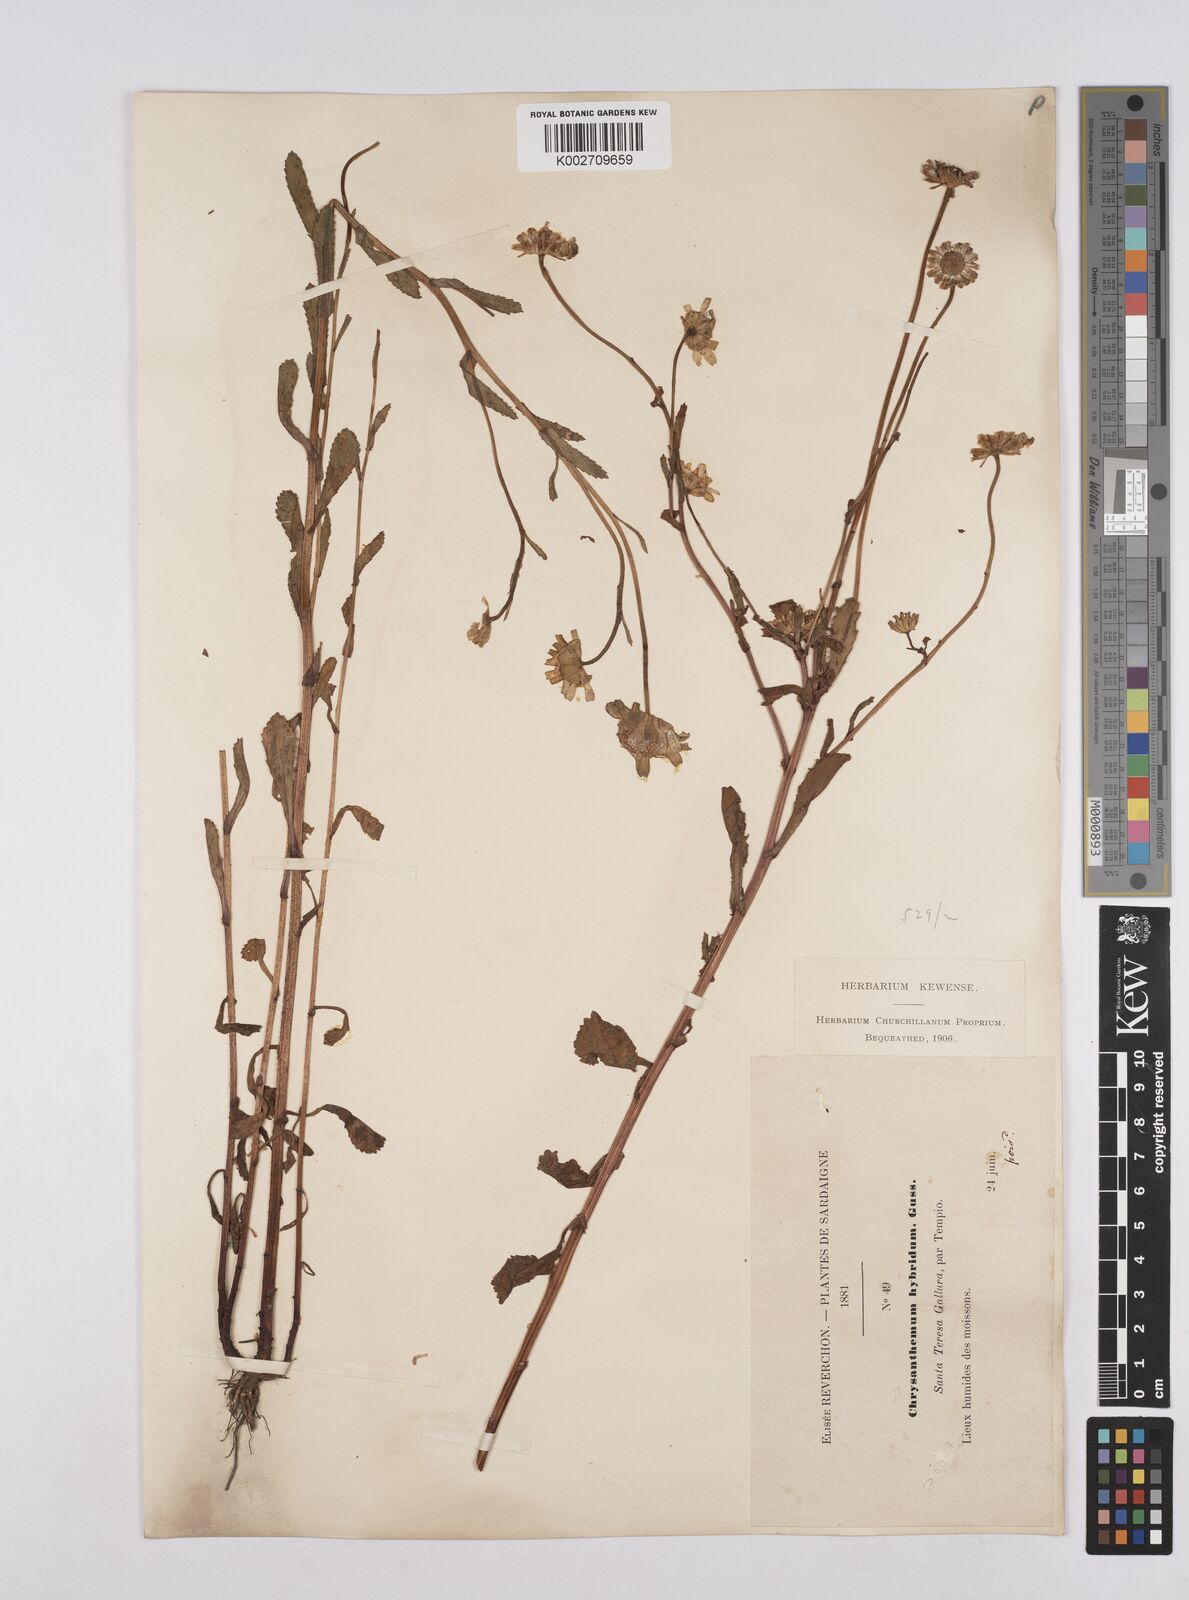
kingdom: Plantae
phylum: Tracheophyta
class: Magnoliopsida
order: Asterales
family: Asteraceae
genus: Coleostephus
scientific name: Coleostephus paludosus
